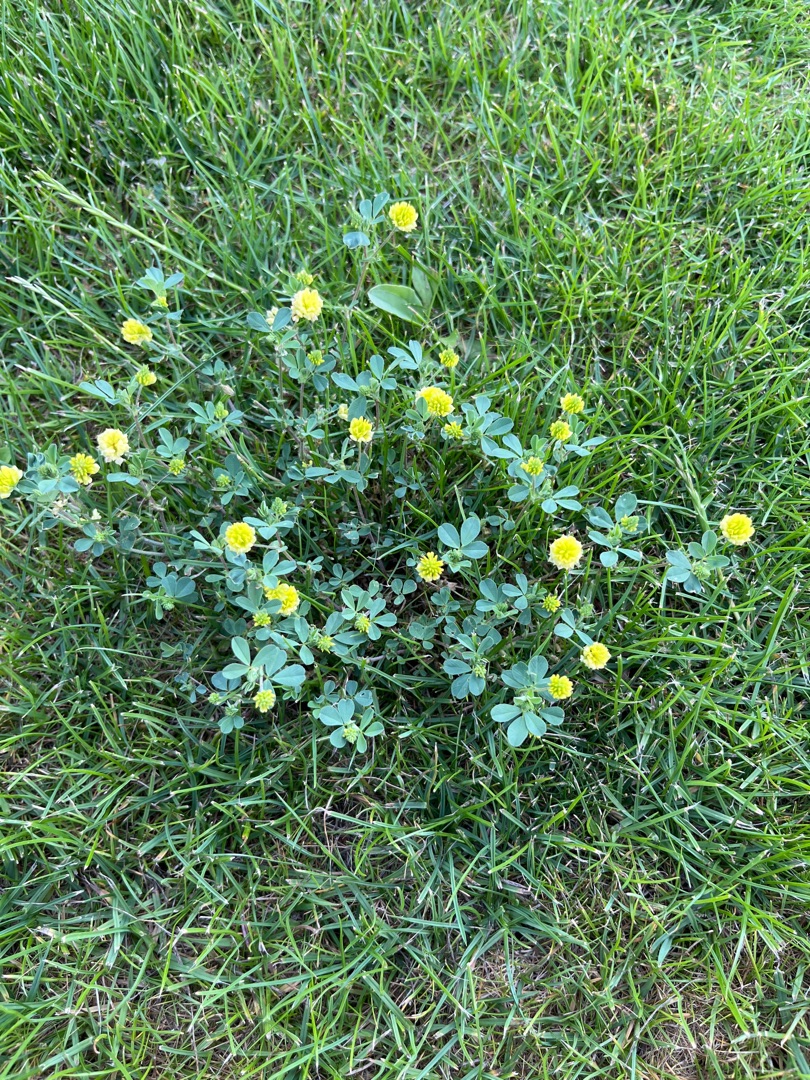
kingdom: Plantae
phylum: Tracheophyta
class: Magnoliopsida
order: Fabales
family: Fabaceae
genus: Trifolium
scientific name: Trifolium campestre
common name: Gul kløver
